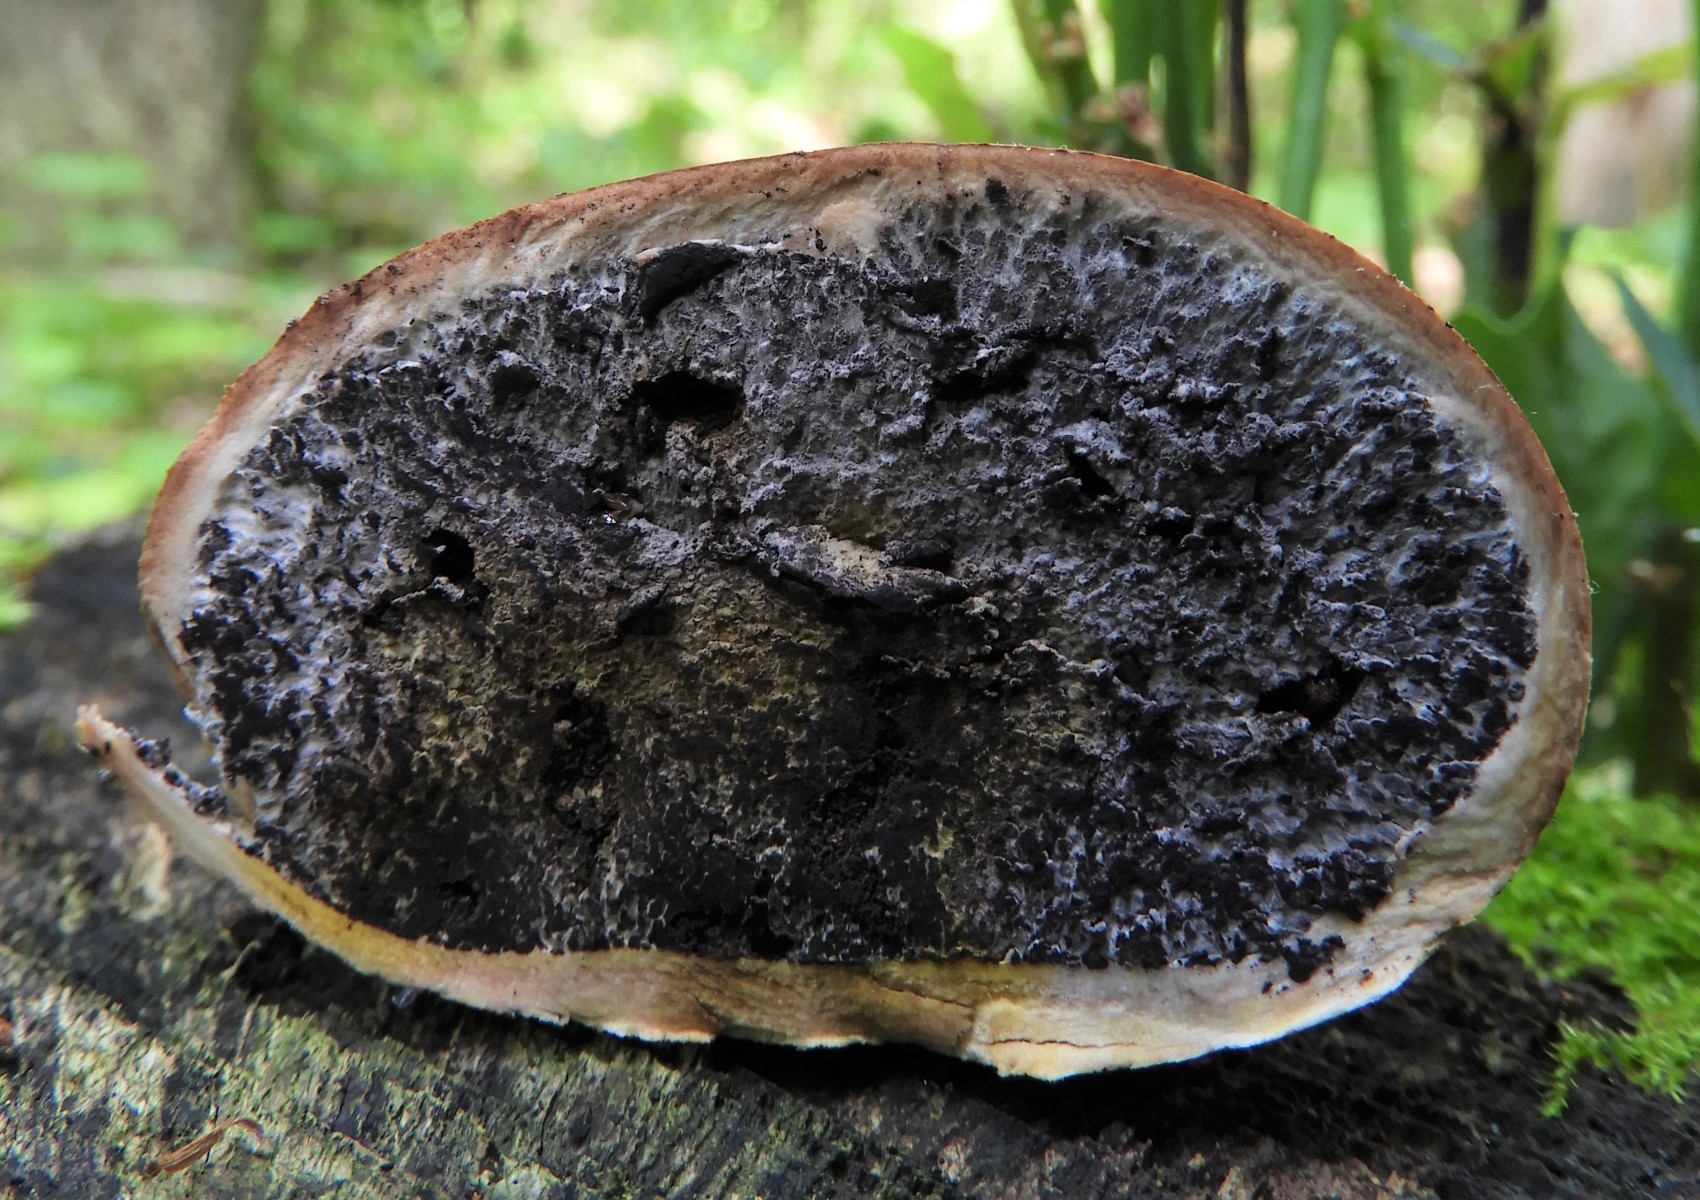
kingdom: Fungi
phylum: Basidiomycota
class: Agaricomycetes
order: Boletales
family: Sclerodermataceae
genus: Scleroderma
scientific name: Scleroderma areolatum
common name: plettet bruskbold
